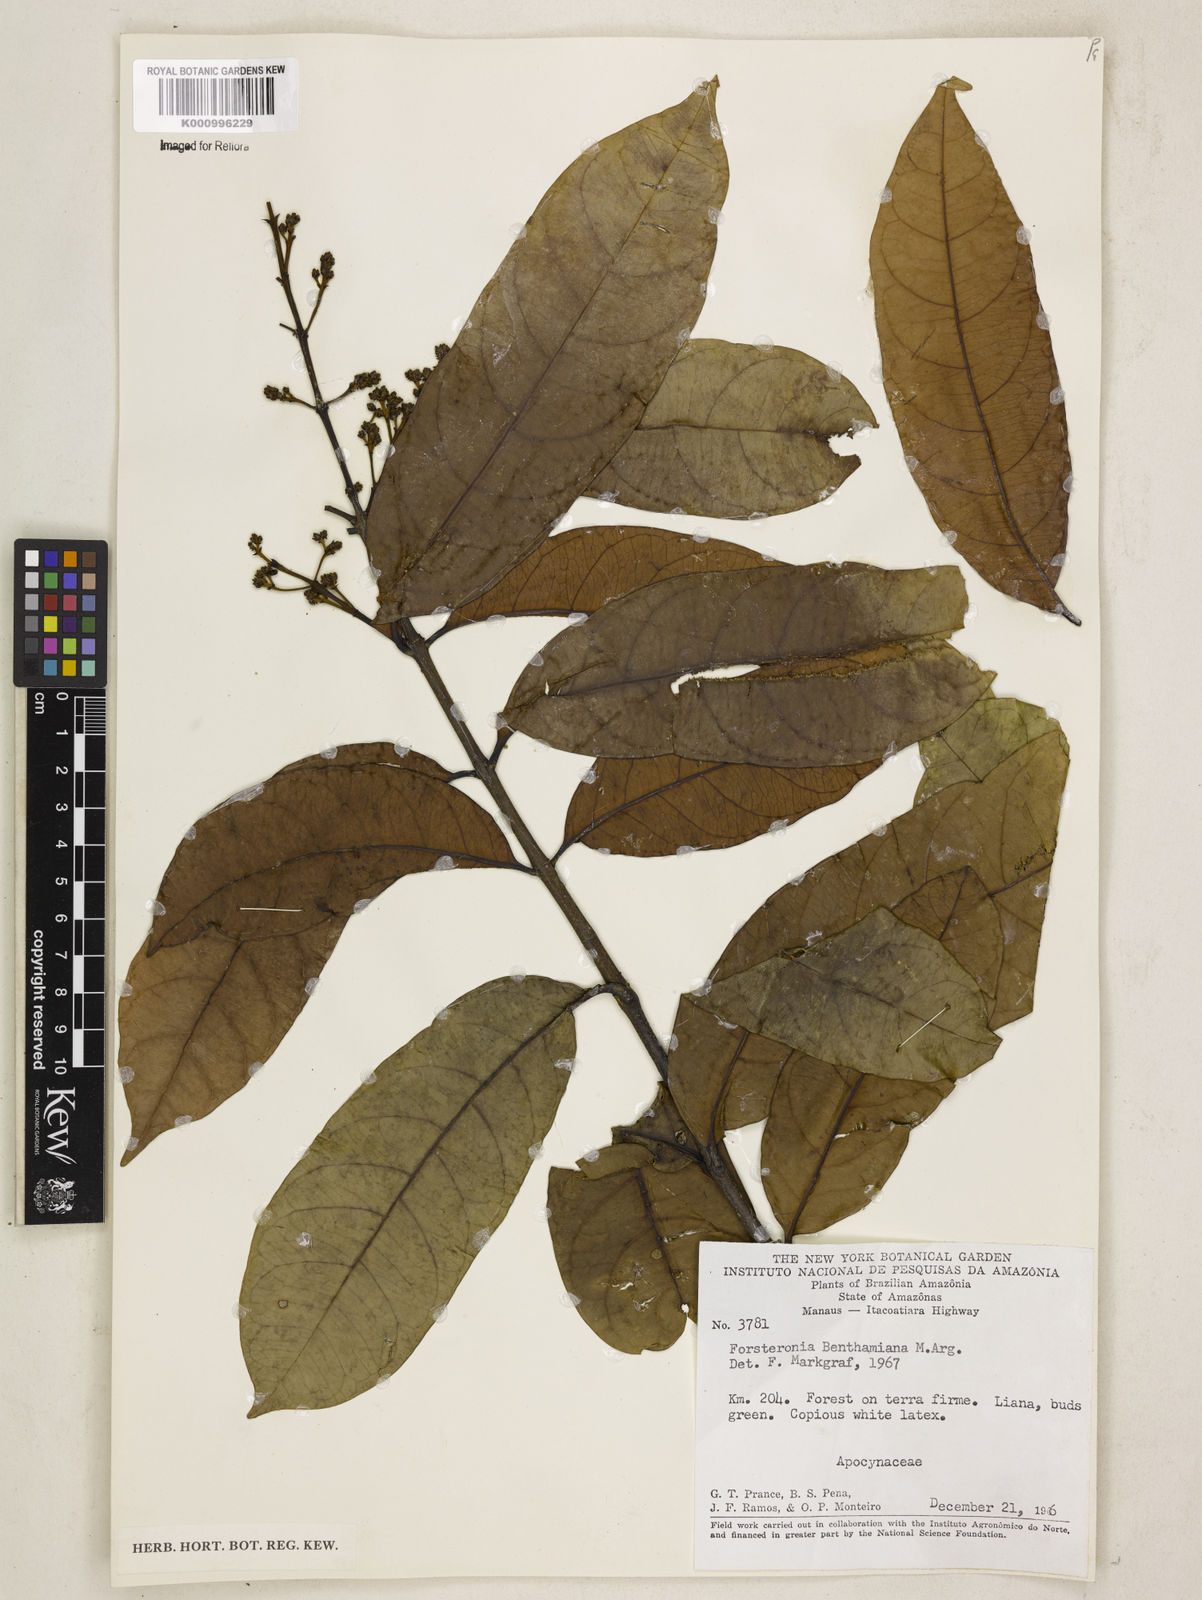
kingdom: Plantae
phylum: Tracheophyta
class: Magnoliopsida
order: Gentianales
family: Apocynaceae
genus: Forsteronia
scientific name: Forsteronia
